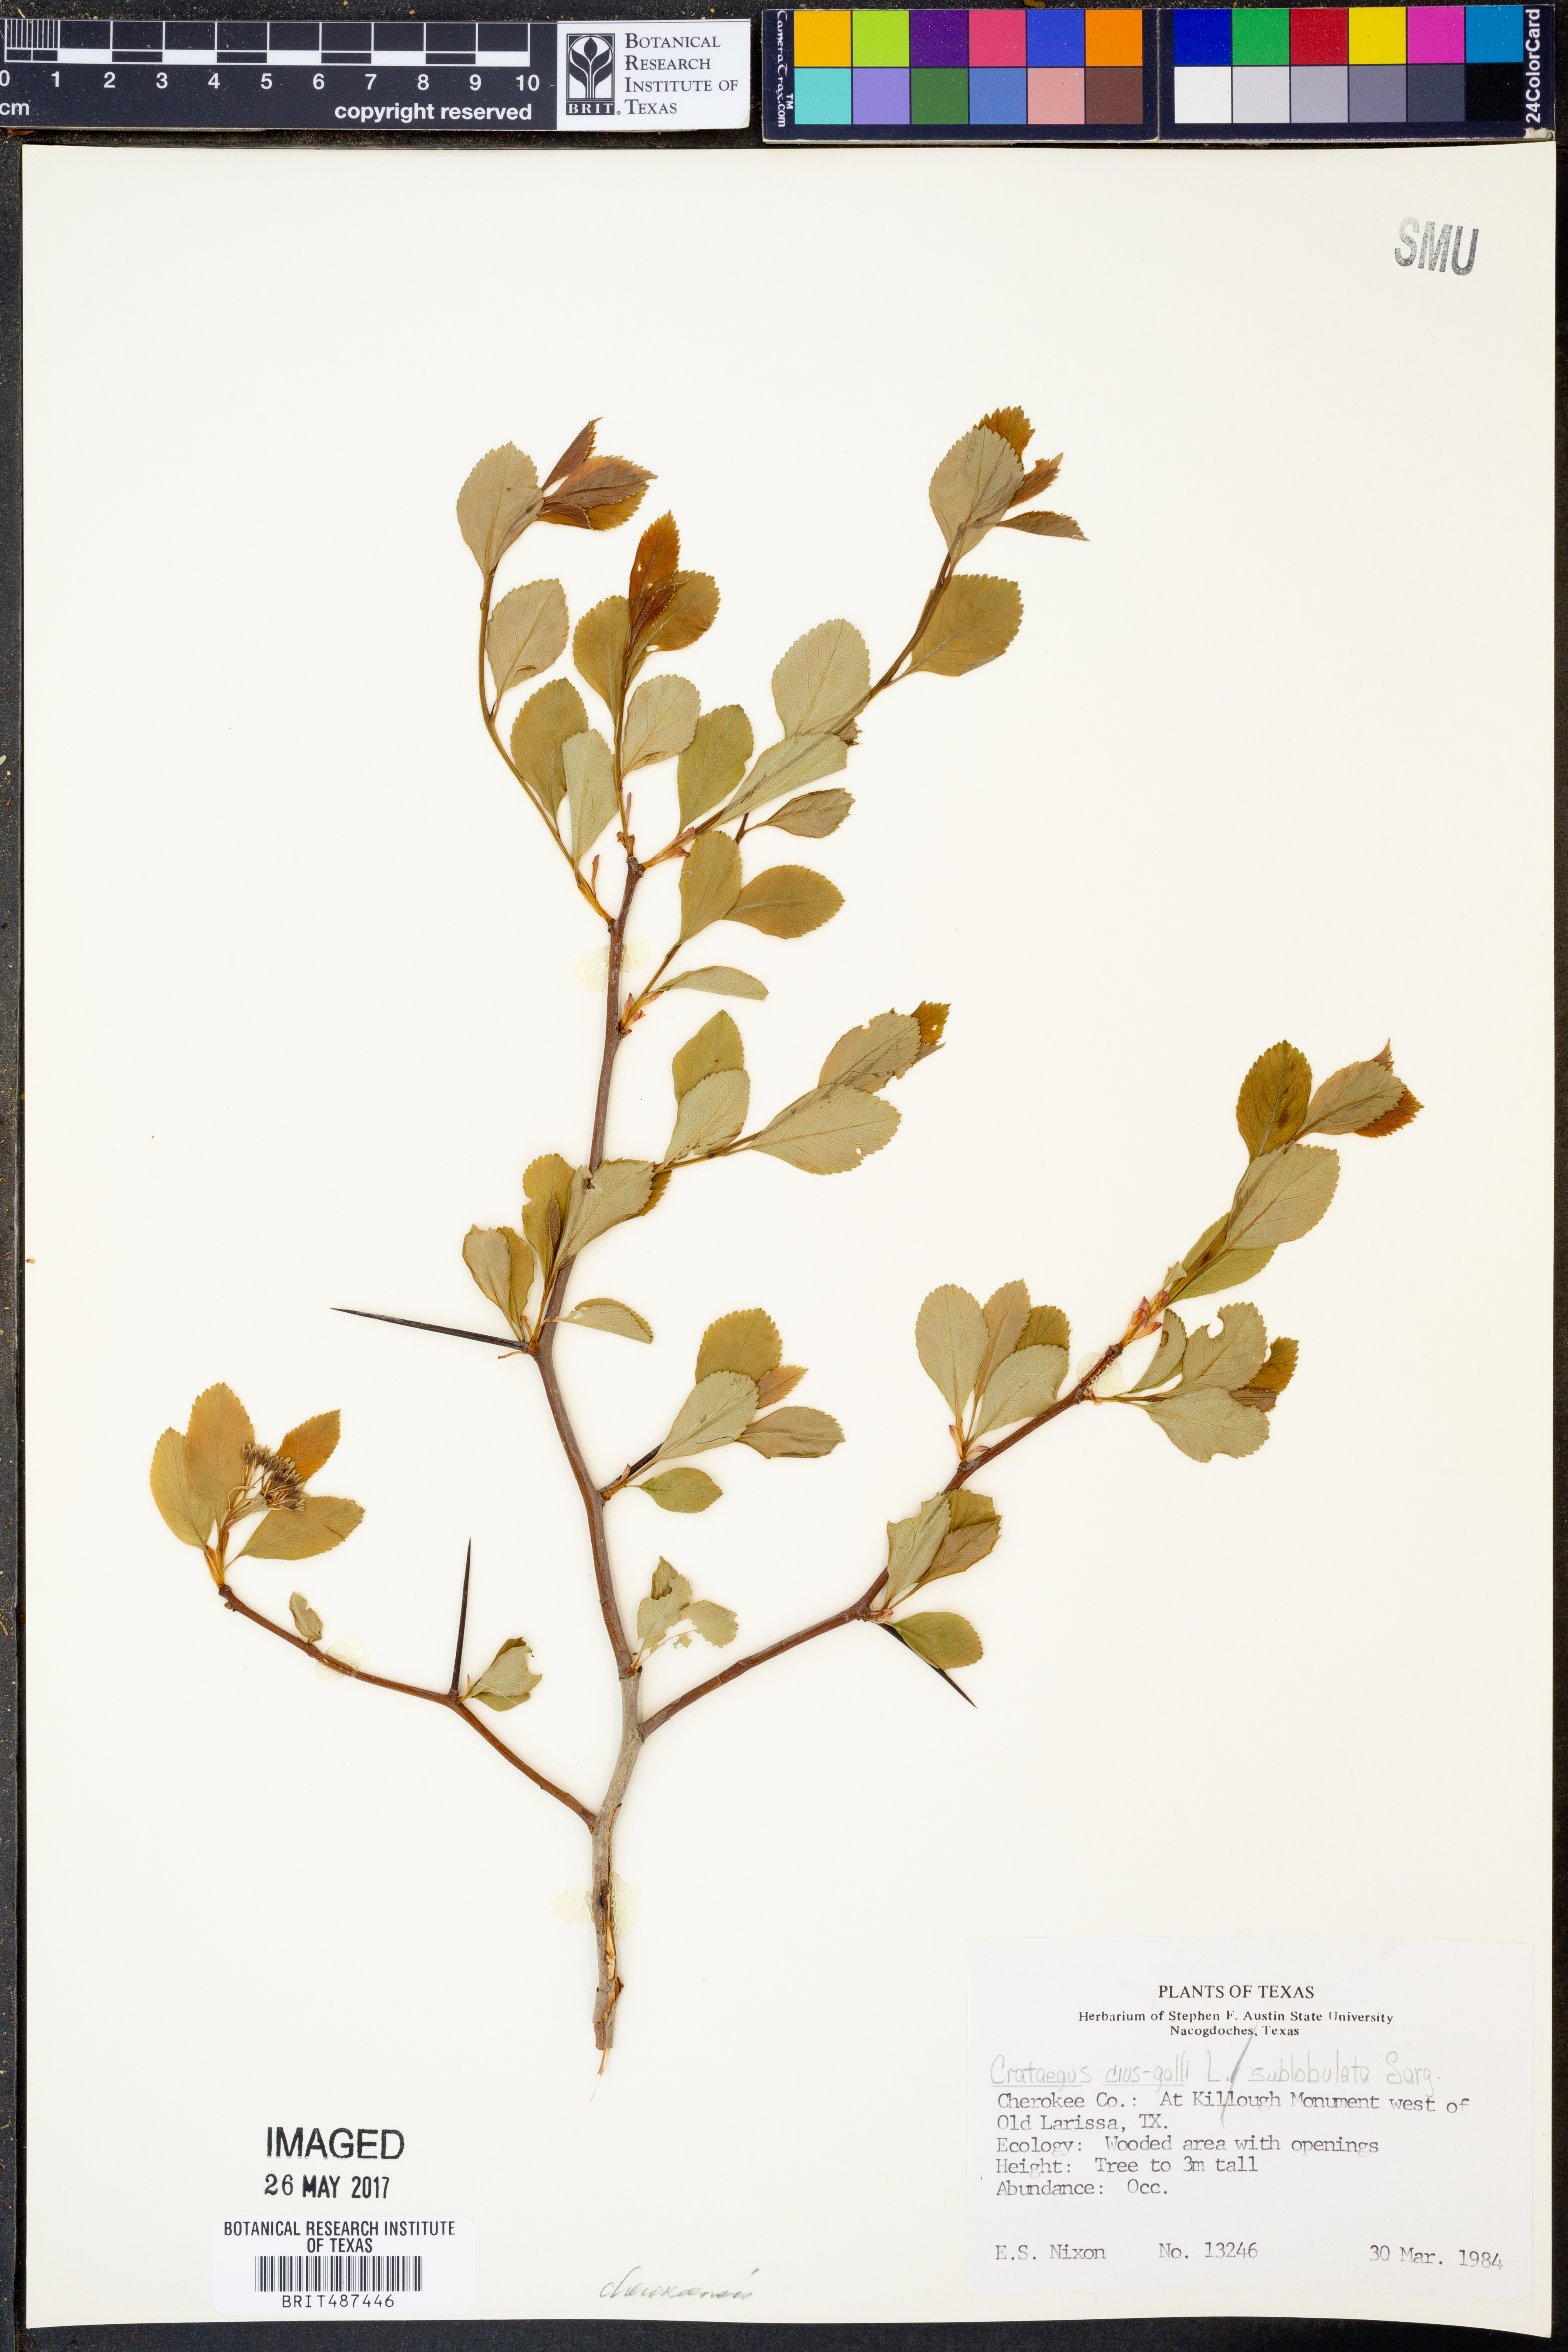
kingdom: Plantae
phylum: Tracheophyta
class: Magnoliopsida
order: Rosales
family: Rosaceae
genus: Crataegus
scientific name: Crataegus crus-galli
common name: Cockspurthorn
